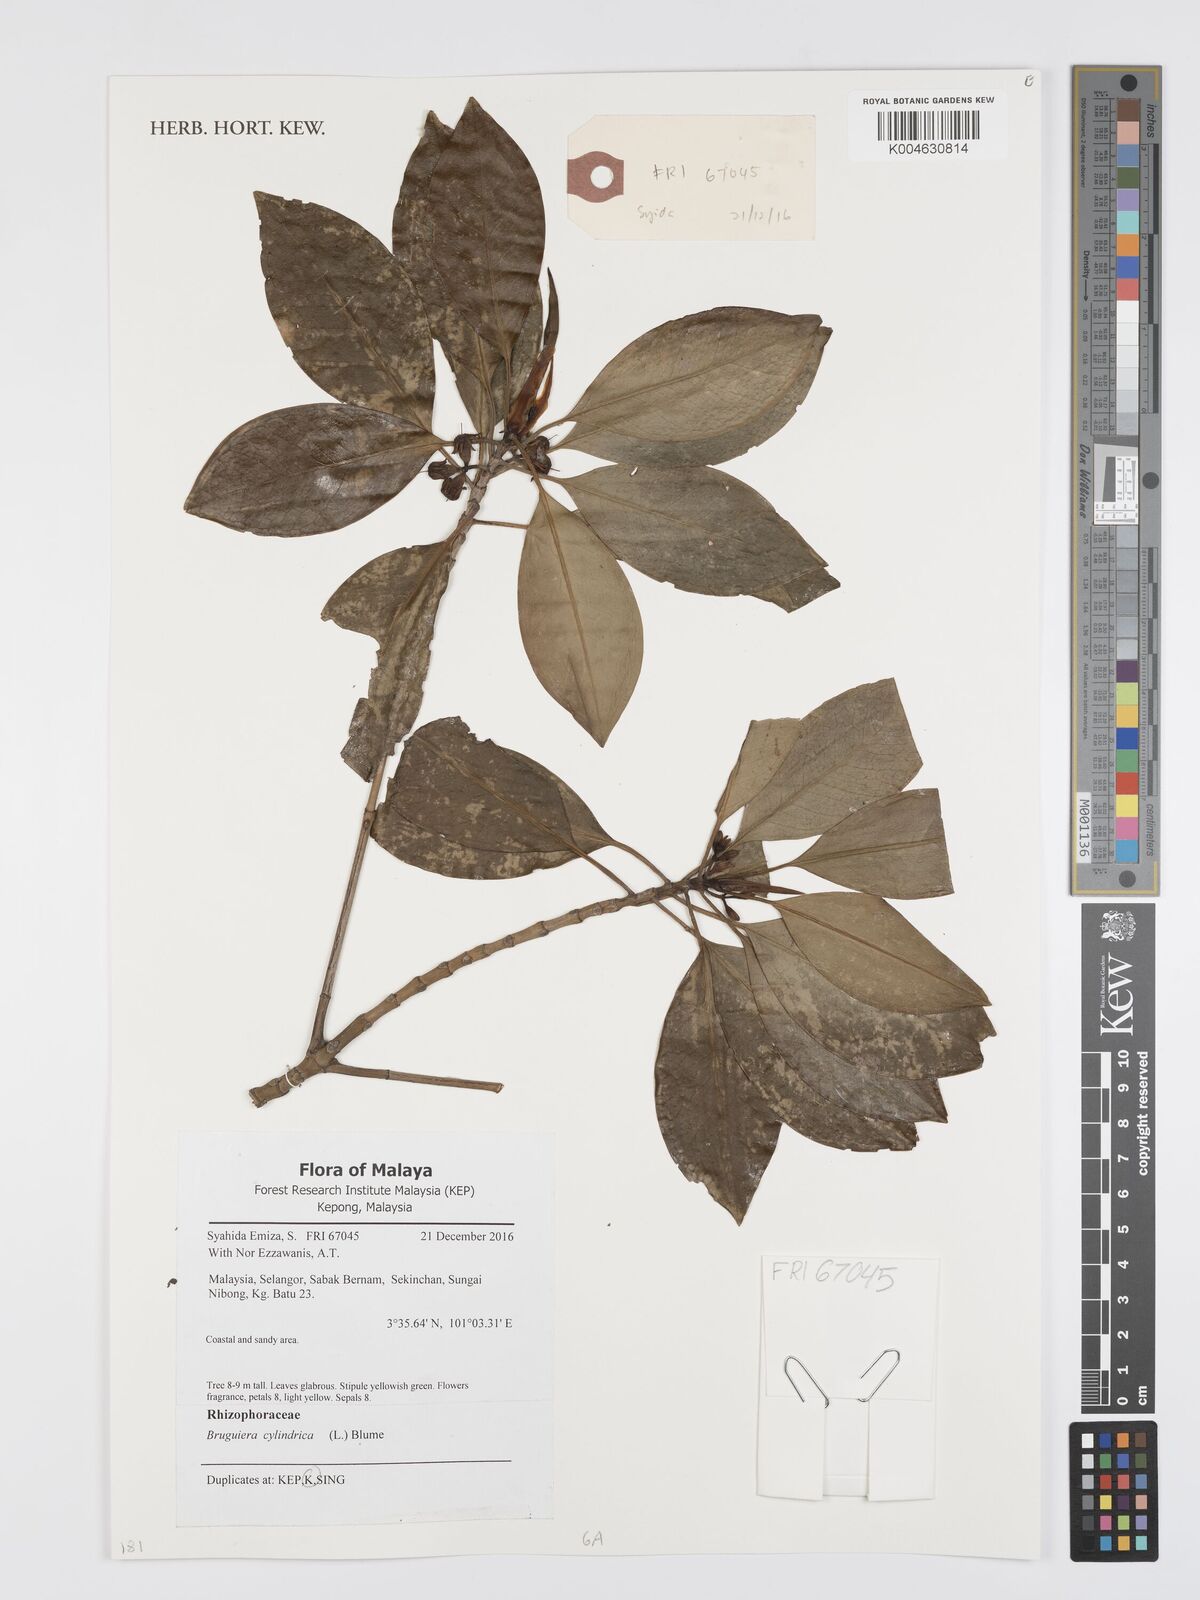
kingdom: Plantae
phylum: Tracheophyta
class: Magnoliopsida
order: Malpighiales
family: Rhizophoraceae
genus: Bruguiera
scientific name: Bruguiera cylindrica
